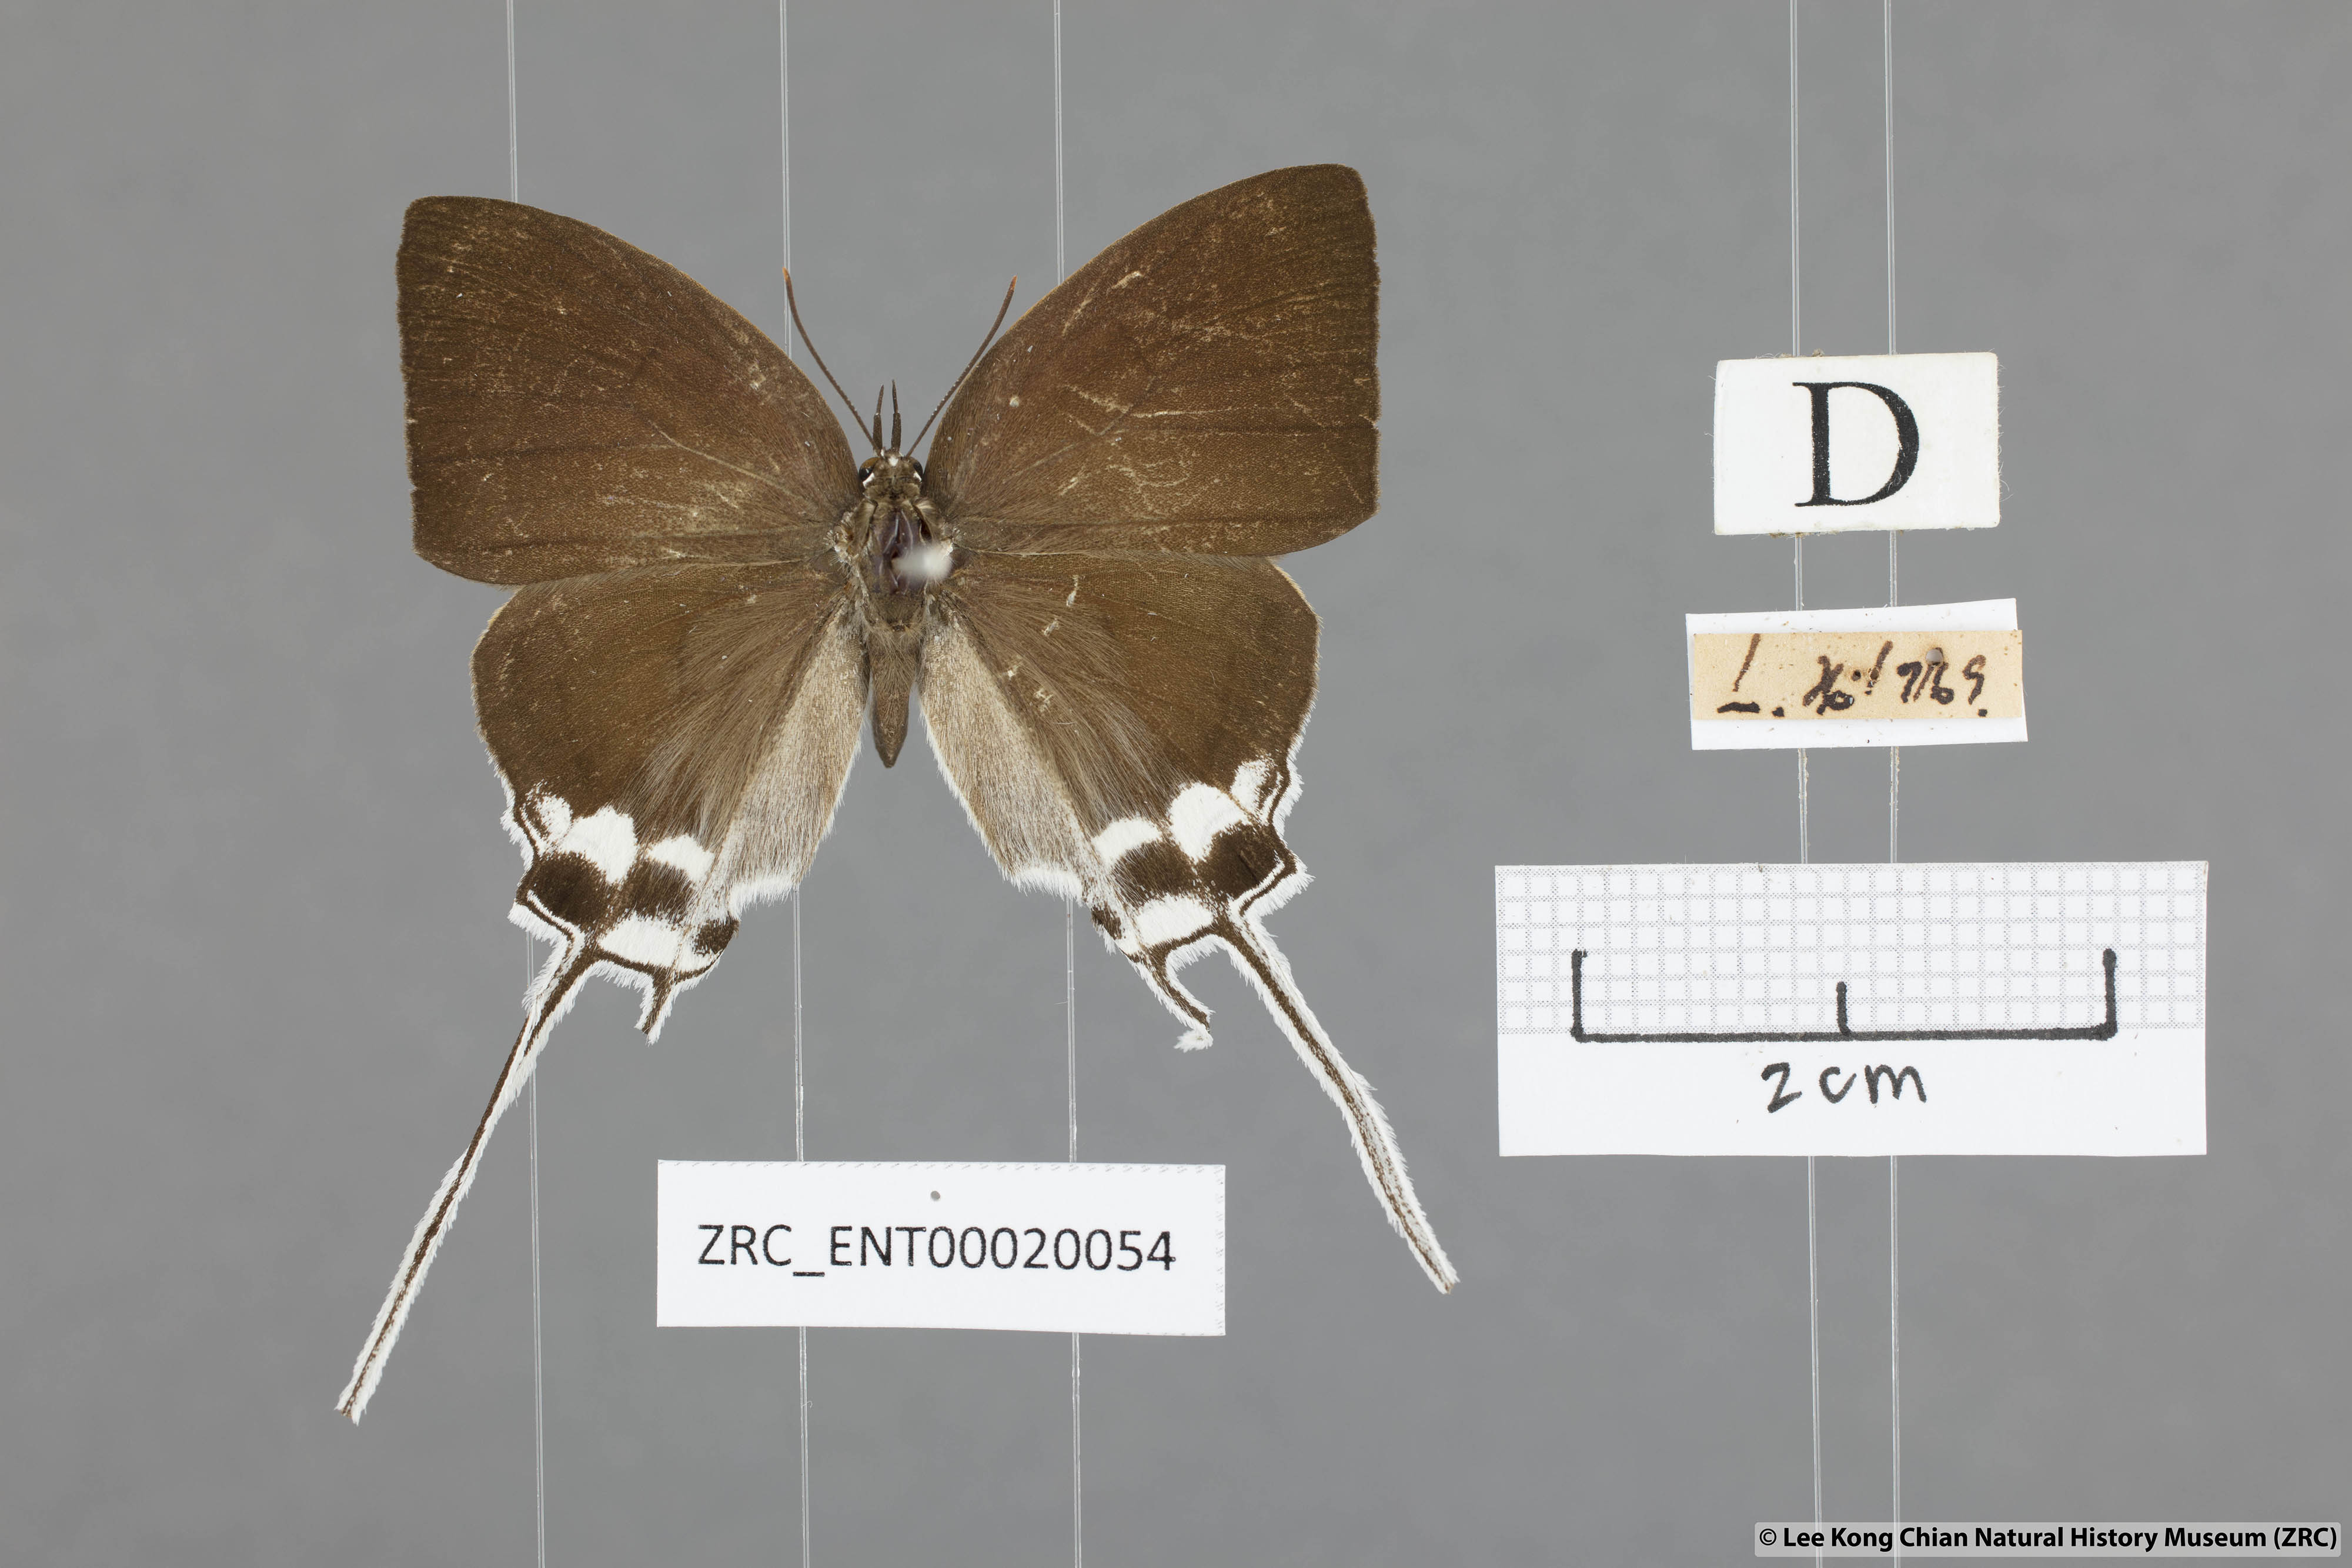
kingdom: Animalia
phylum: Arthropoda
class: Insecta
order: Lepidoptera
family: Lycaenidae
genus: Cheritra
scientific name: Cheritra freja
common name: Common imperial
